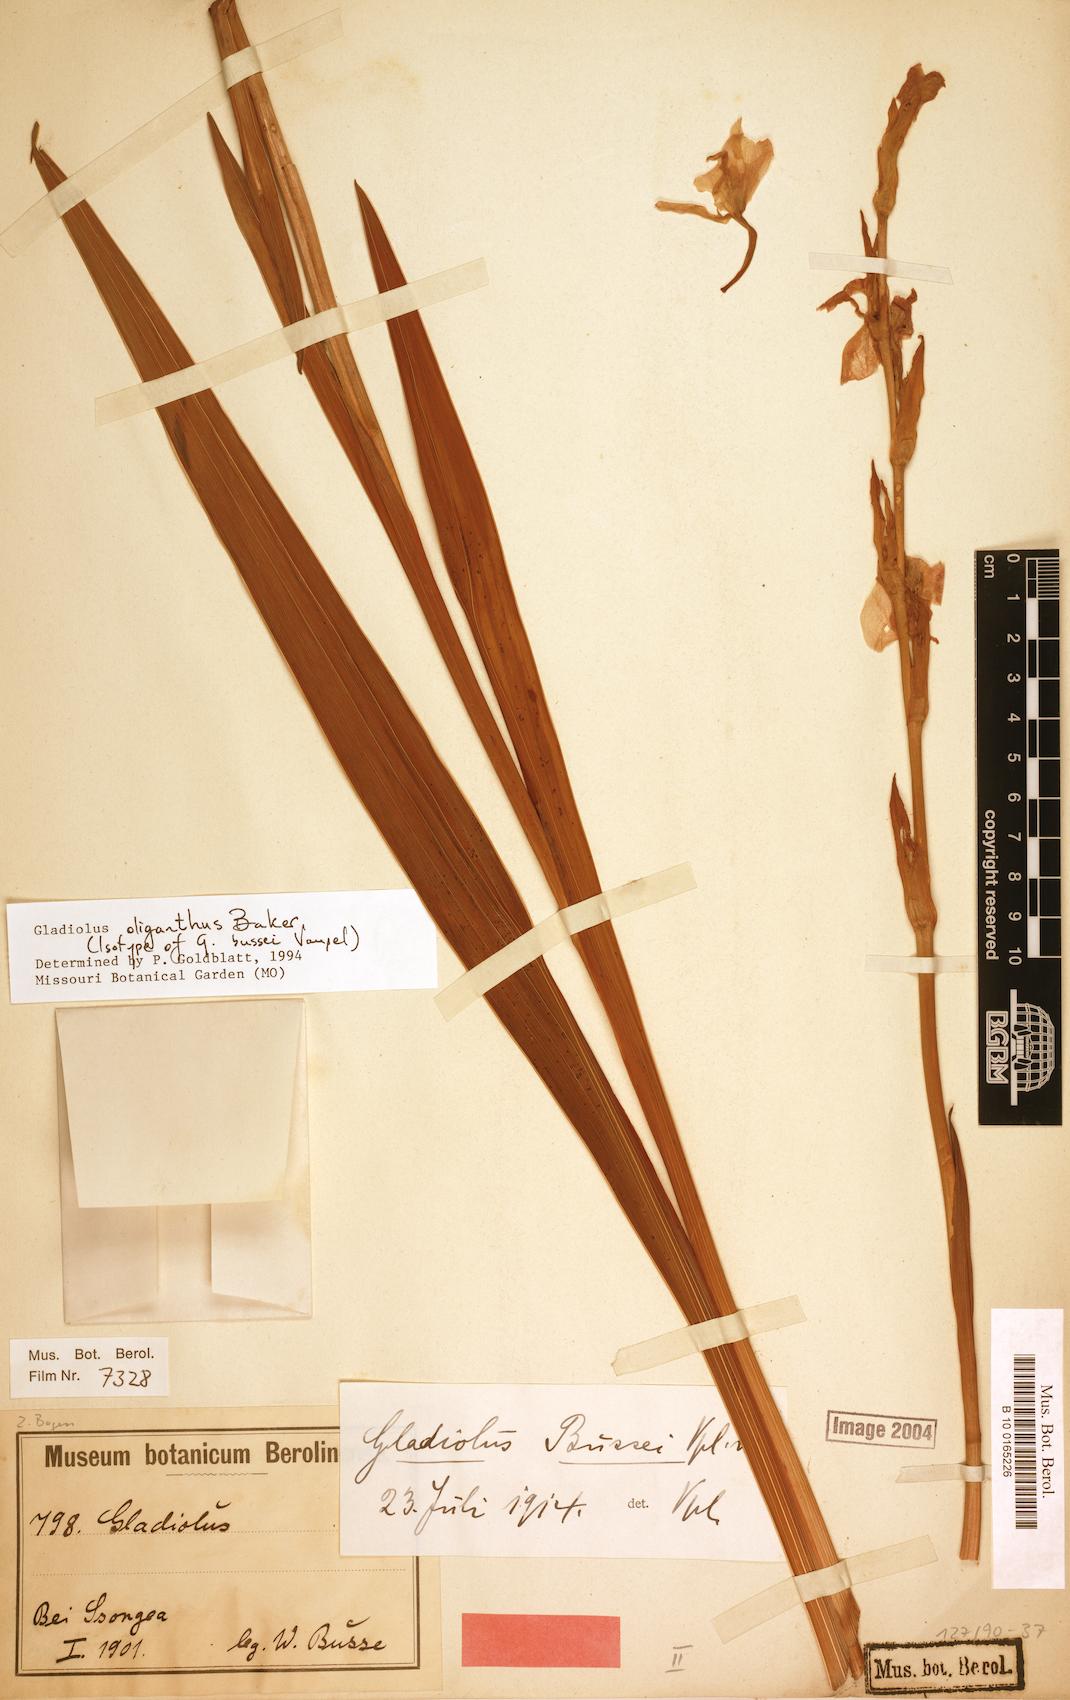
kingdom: Plantae
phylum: Tracheophyta
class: Liliopsida
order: Asparagales
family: Iridaceae
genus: Gladiolus
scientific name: Gladiolus oliganthus
